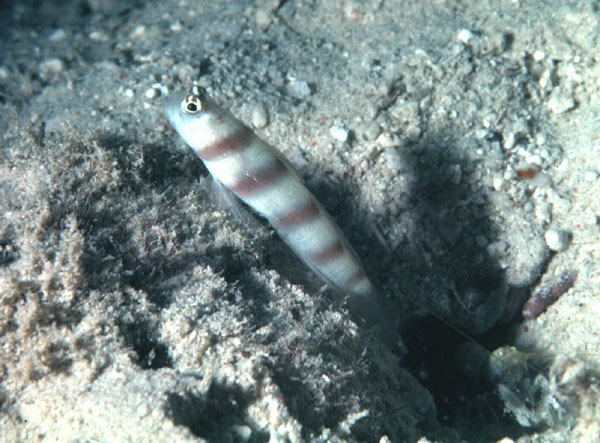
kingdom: Animalia
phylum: Chordata
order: Perciformes
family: Gobiidae
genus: Amblyeleotris
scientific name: Amblyeleotris wheeleri
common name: Gorgeous prawn-goby
